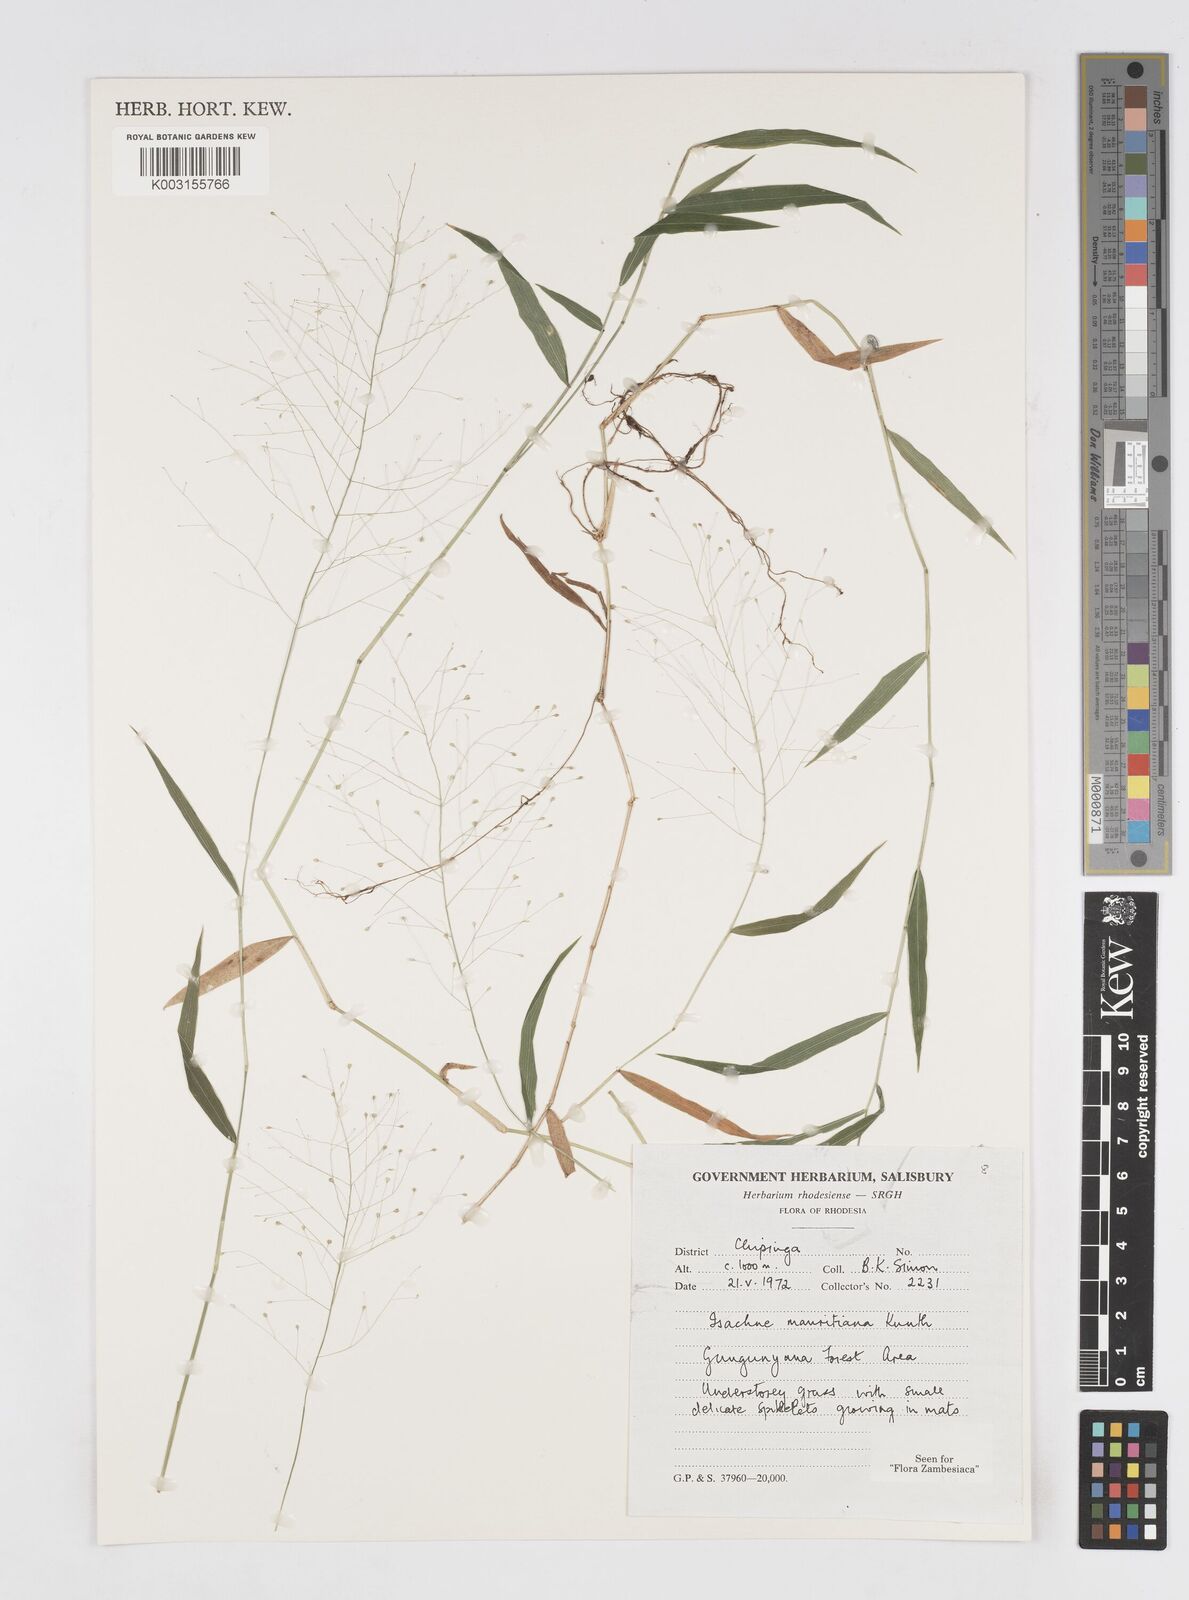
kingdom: Plantae
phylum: Tracheophyta
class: Liliopsida
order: Poales
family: Poaceae
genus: Isachne
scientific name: Isachne mauritiana
